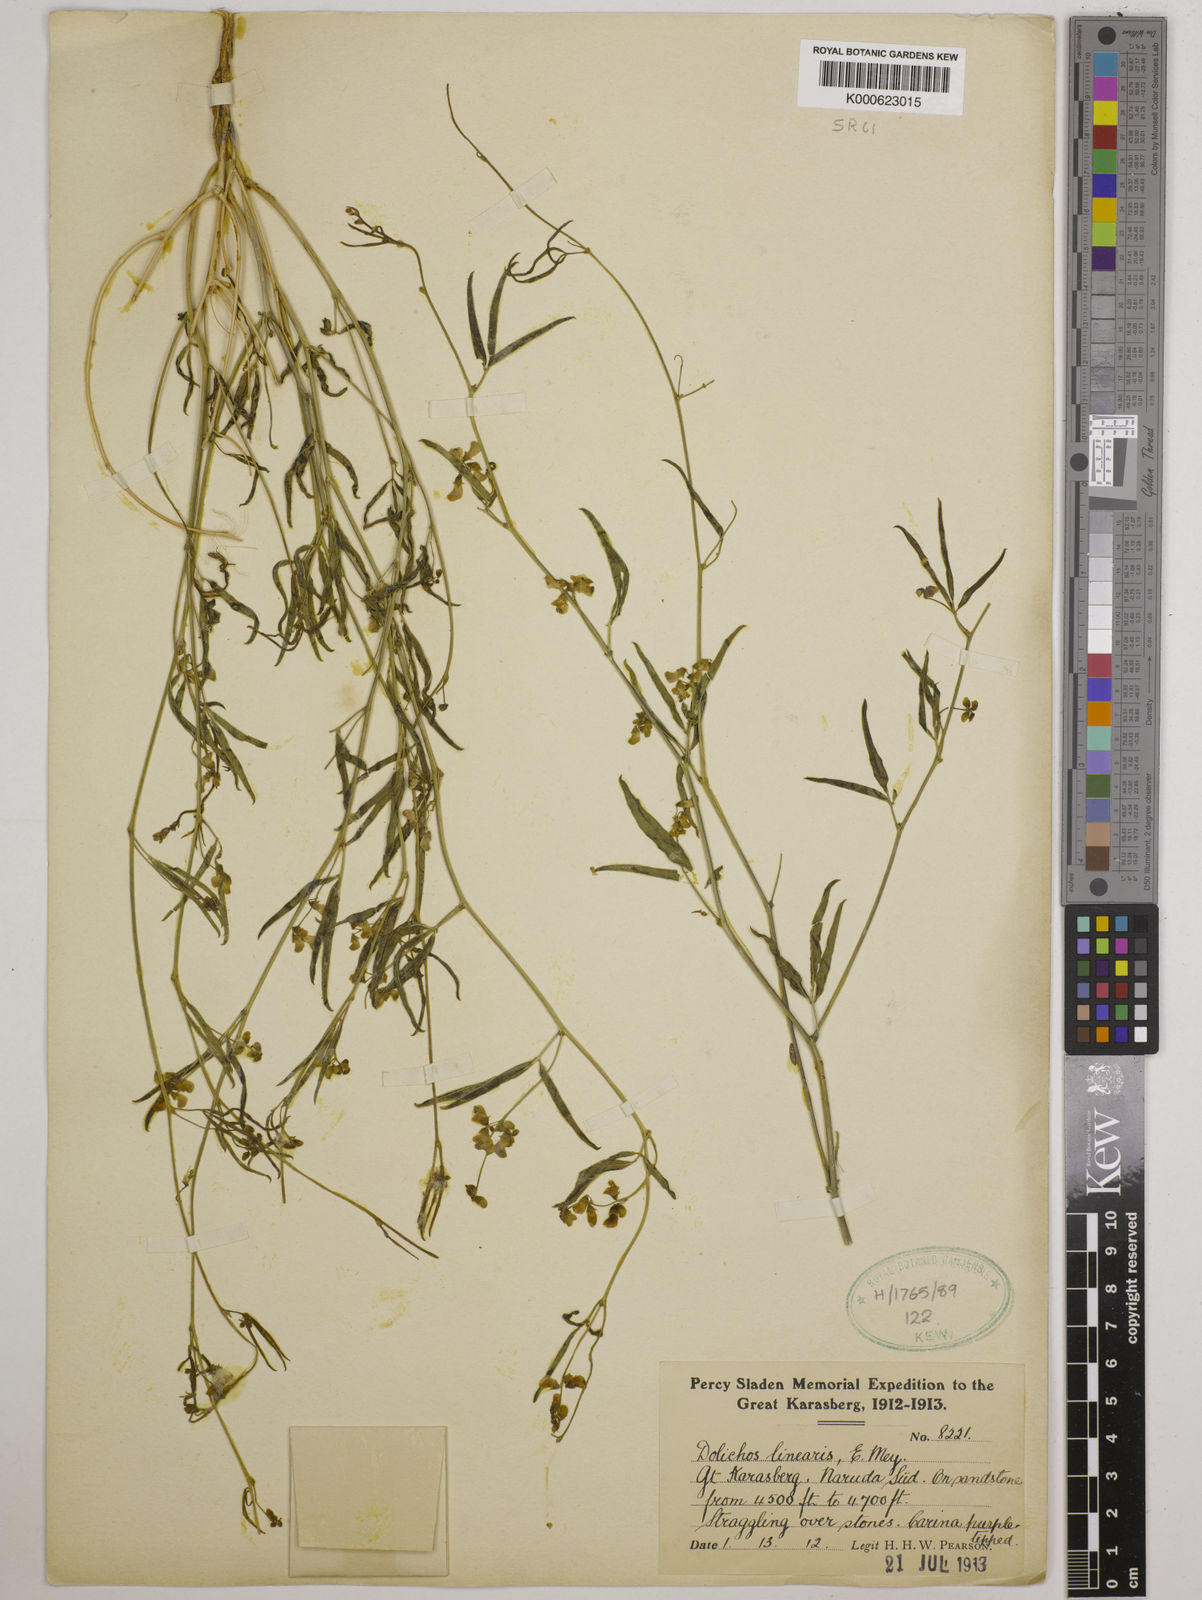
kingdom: Plantae
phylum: Tracheophyta
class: Magnoliopsida
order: Fabales
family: Fabaceae
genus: Dolichos
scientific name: Dolichos linearis
